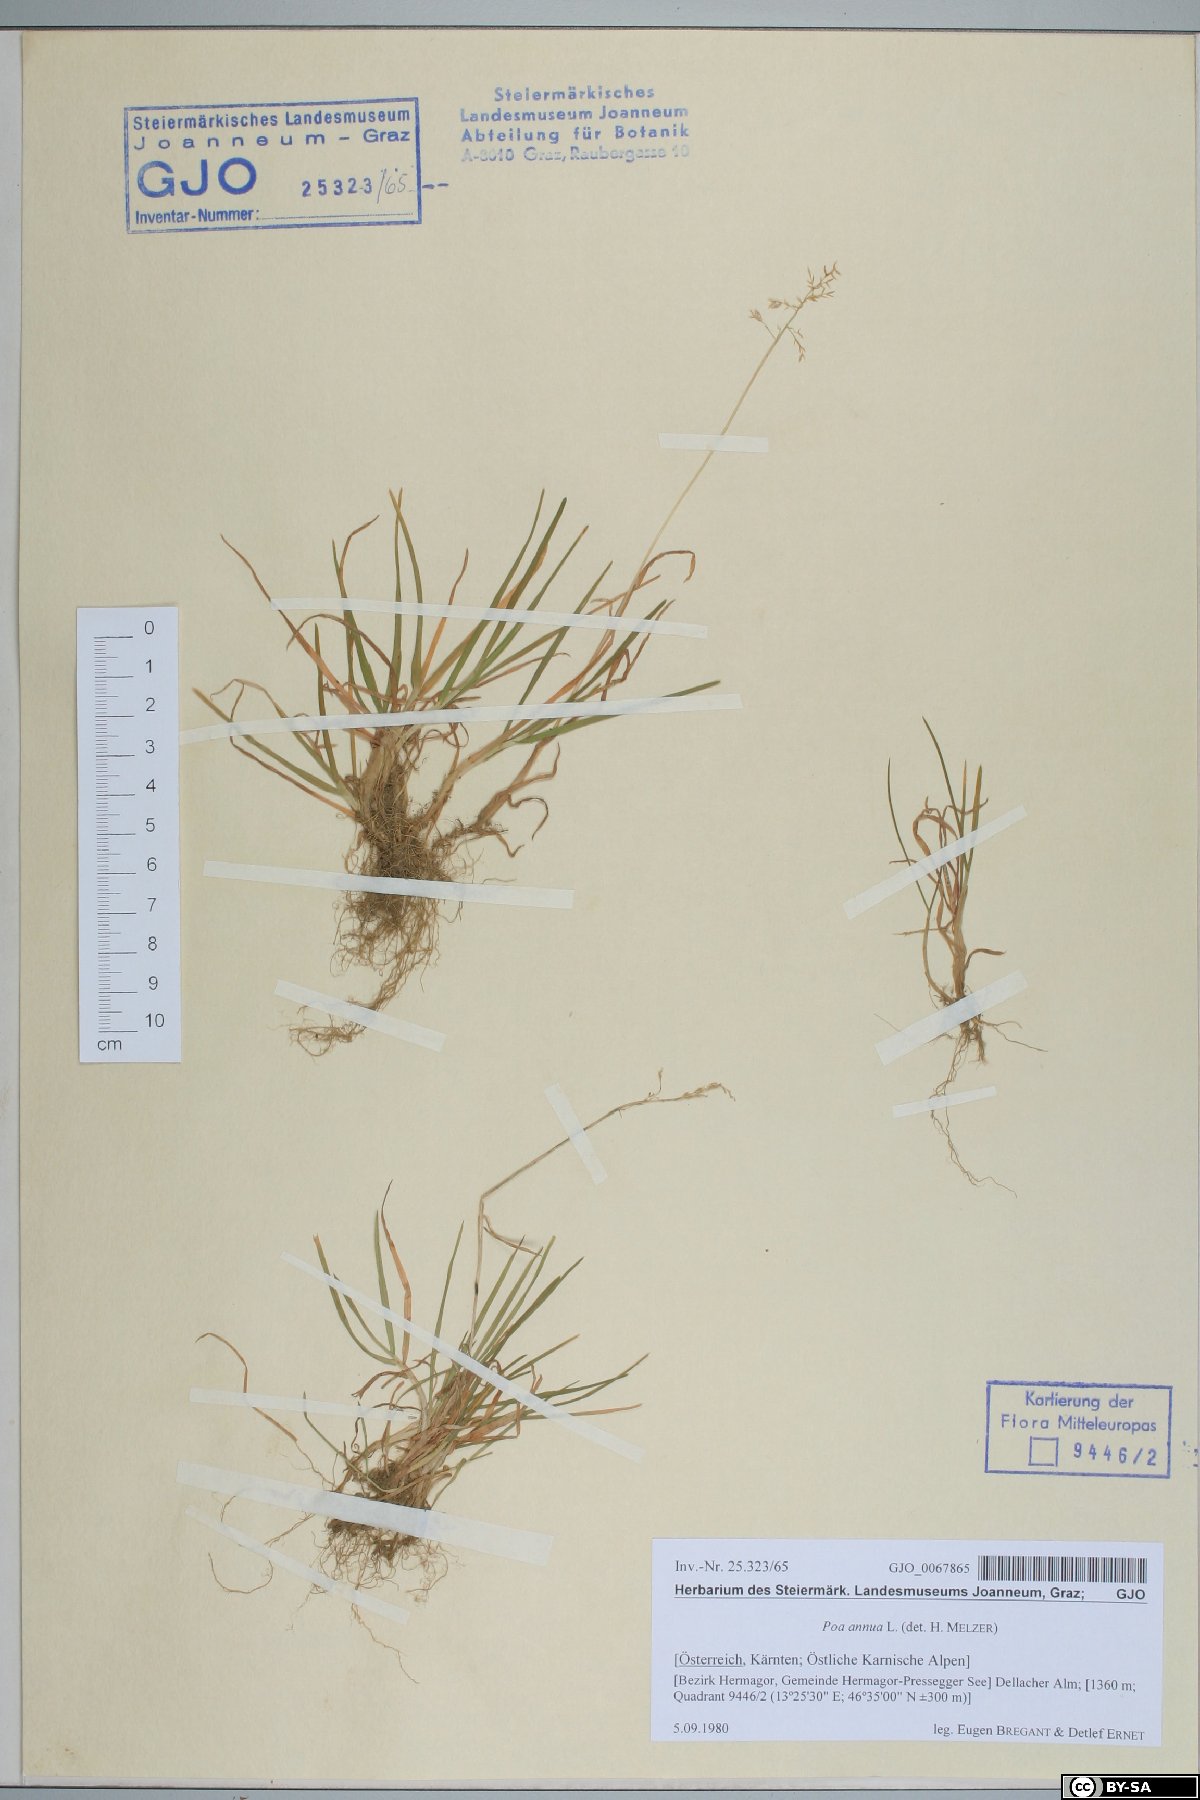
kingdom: Plantae
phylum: Tracheophyta
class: Liliopsida
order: Poales
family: Poaceae
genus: Poa
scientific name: Poa annua
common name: Annual bluegrass
